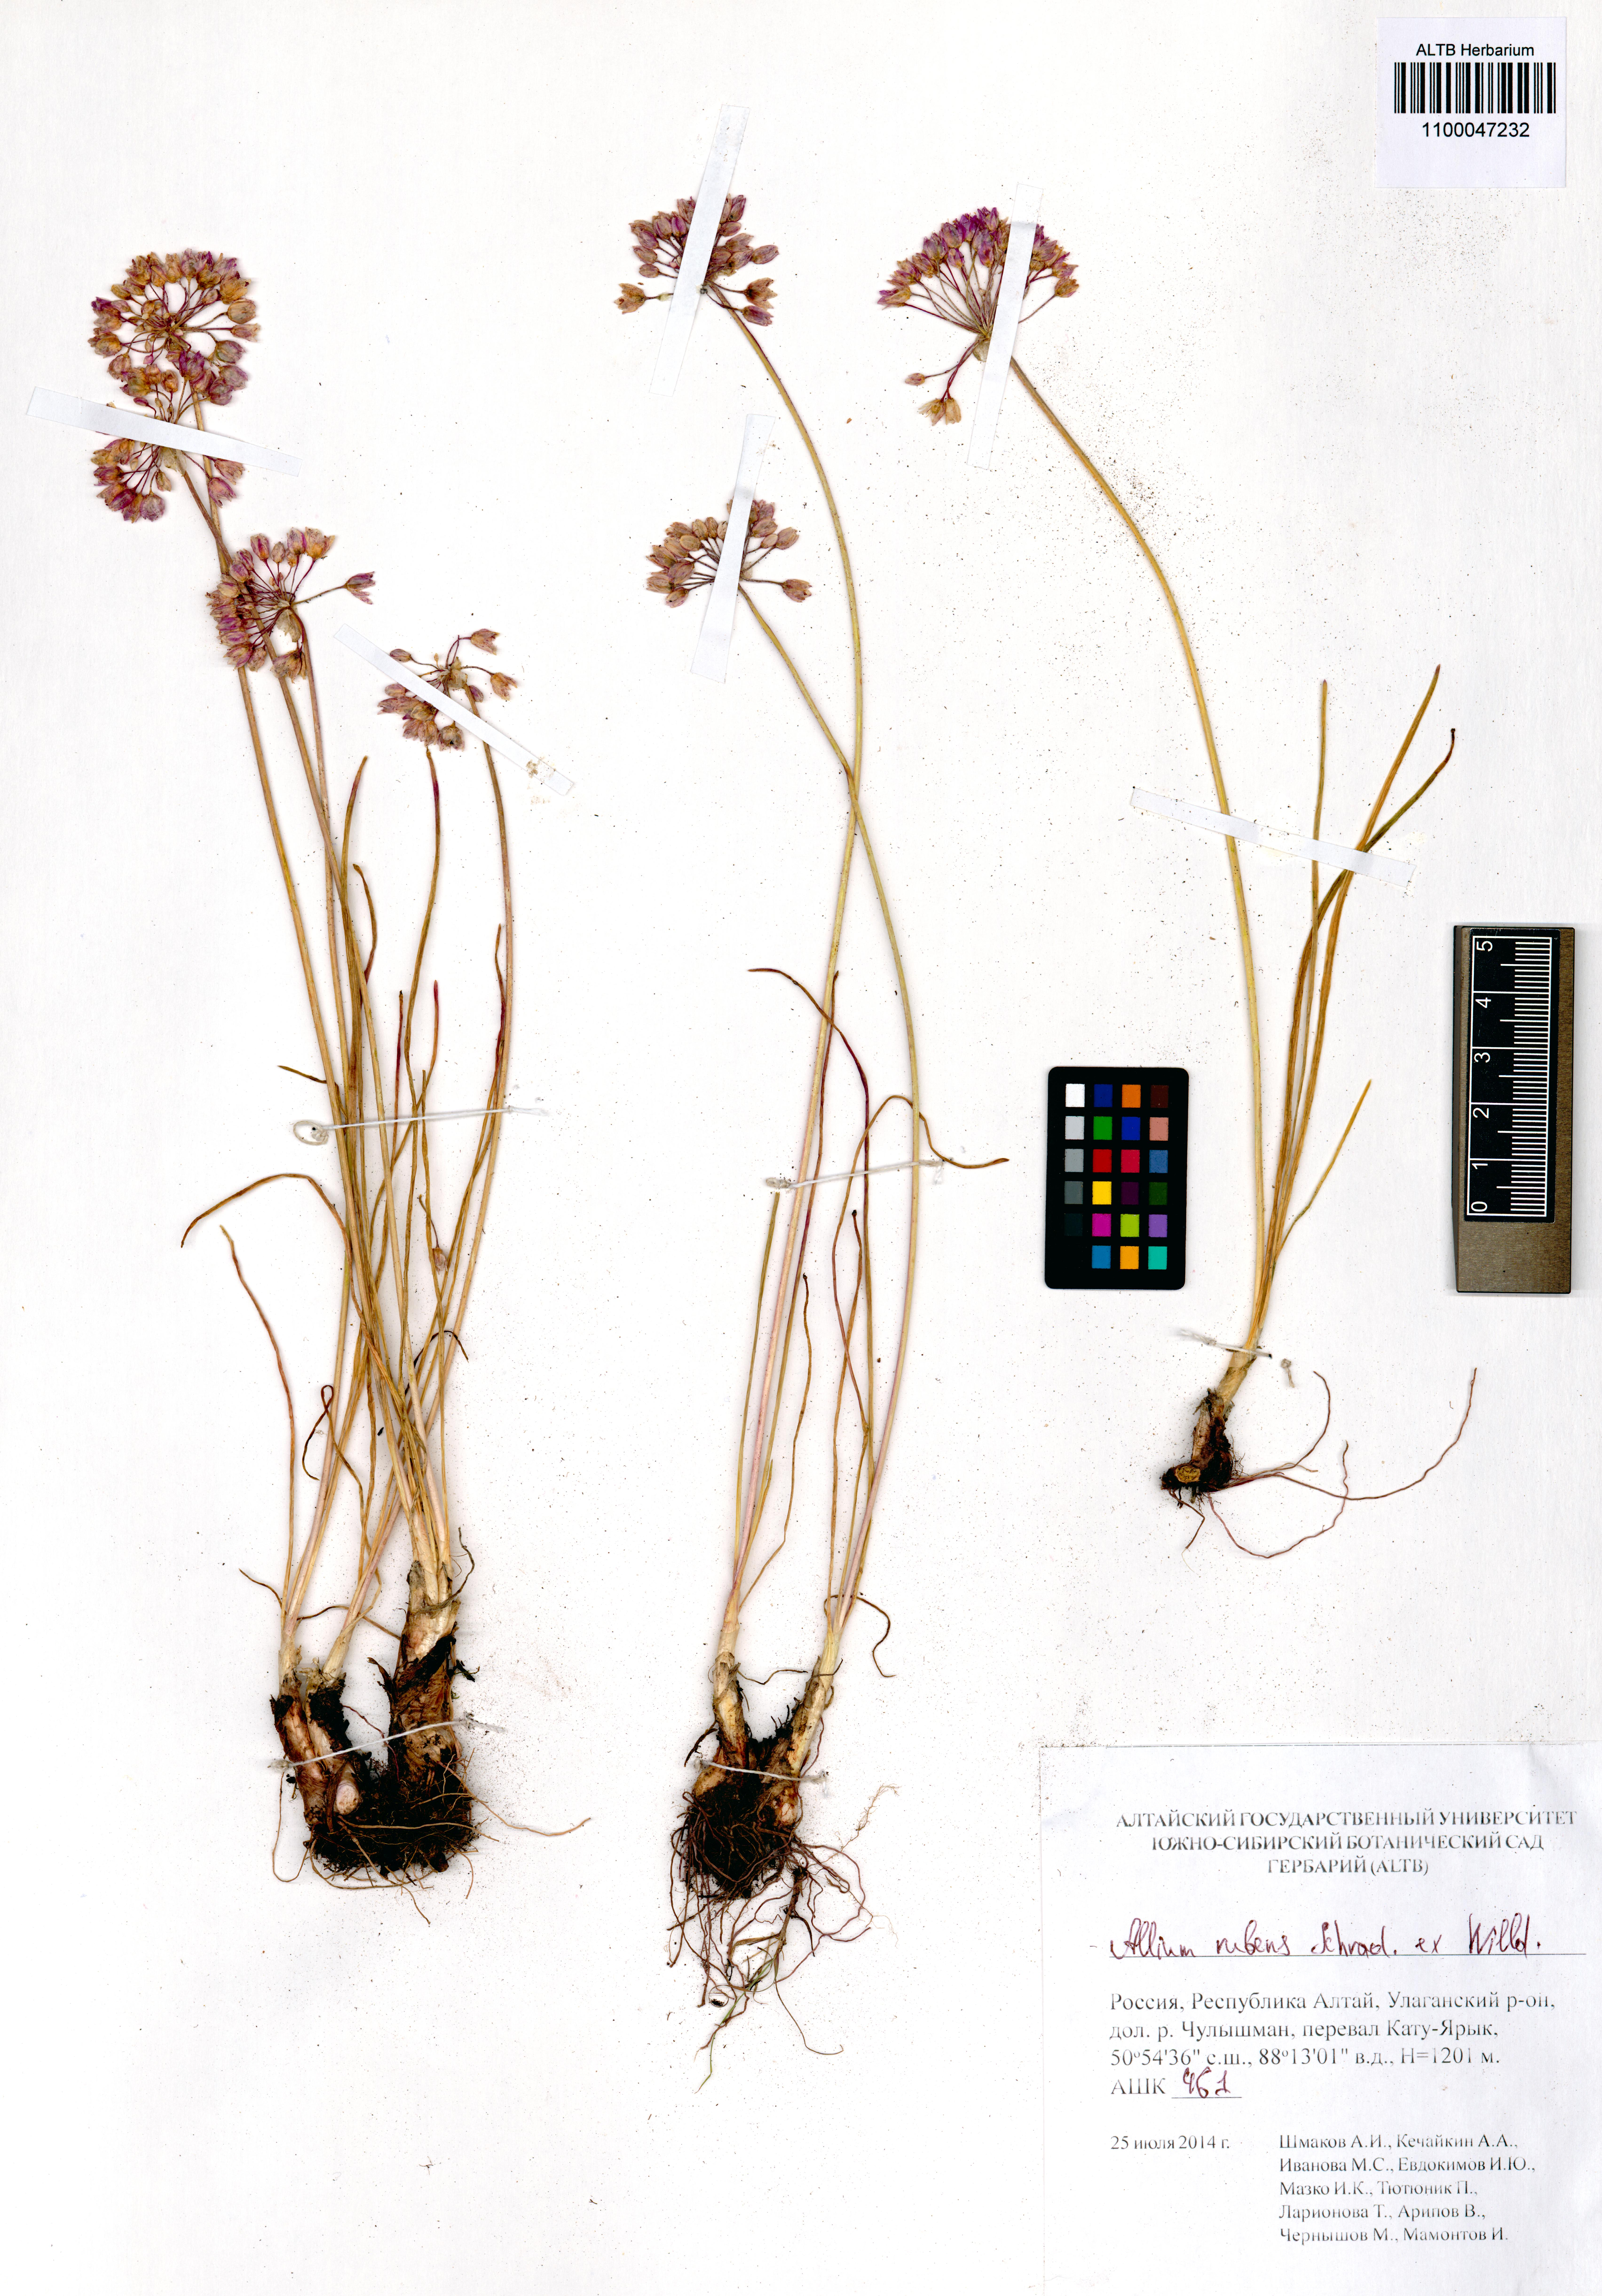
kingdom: Plantae
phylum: Tracheophyta
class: Liliopsida
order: Asparagales
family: Amaryllidaceae
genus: Allium
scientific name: Allium rubens
